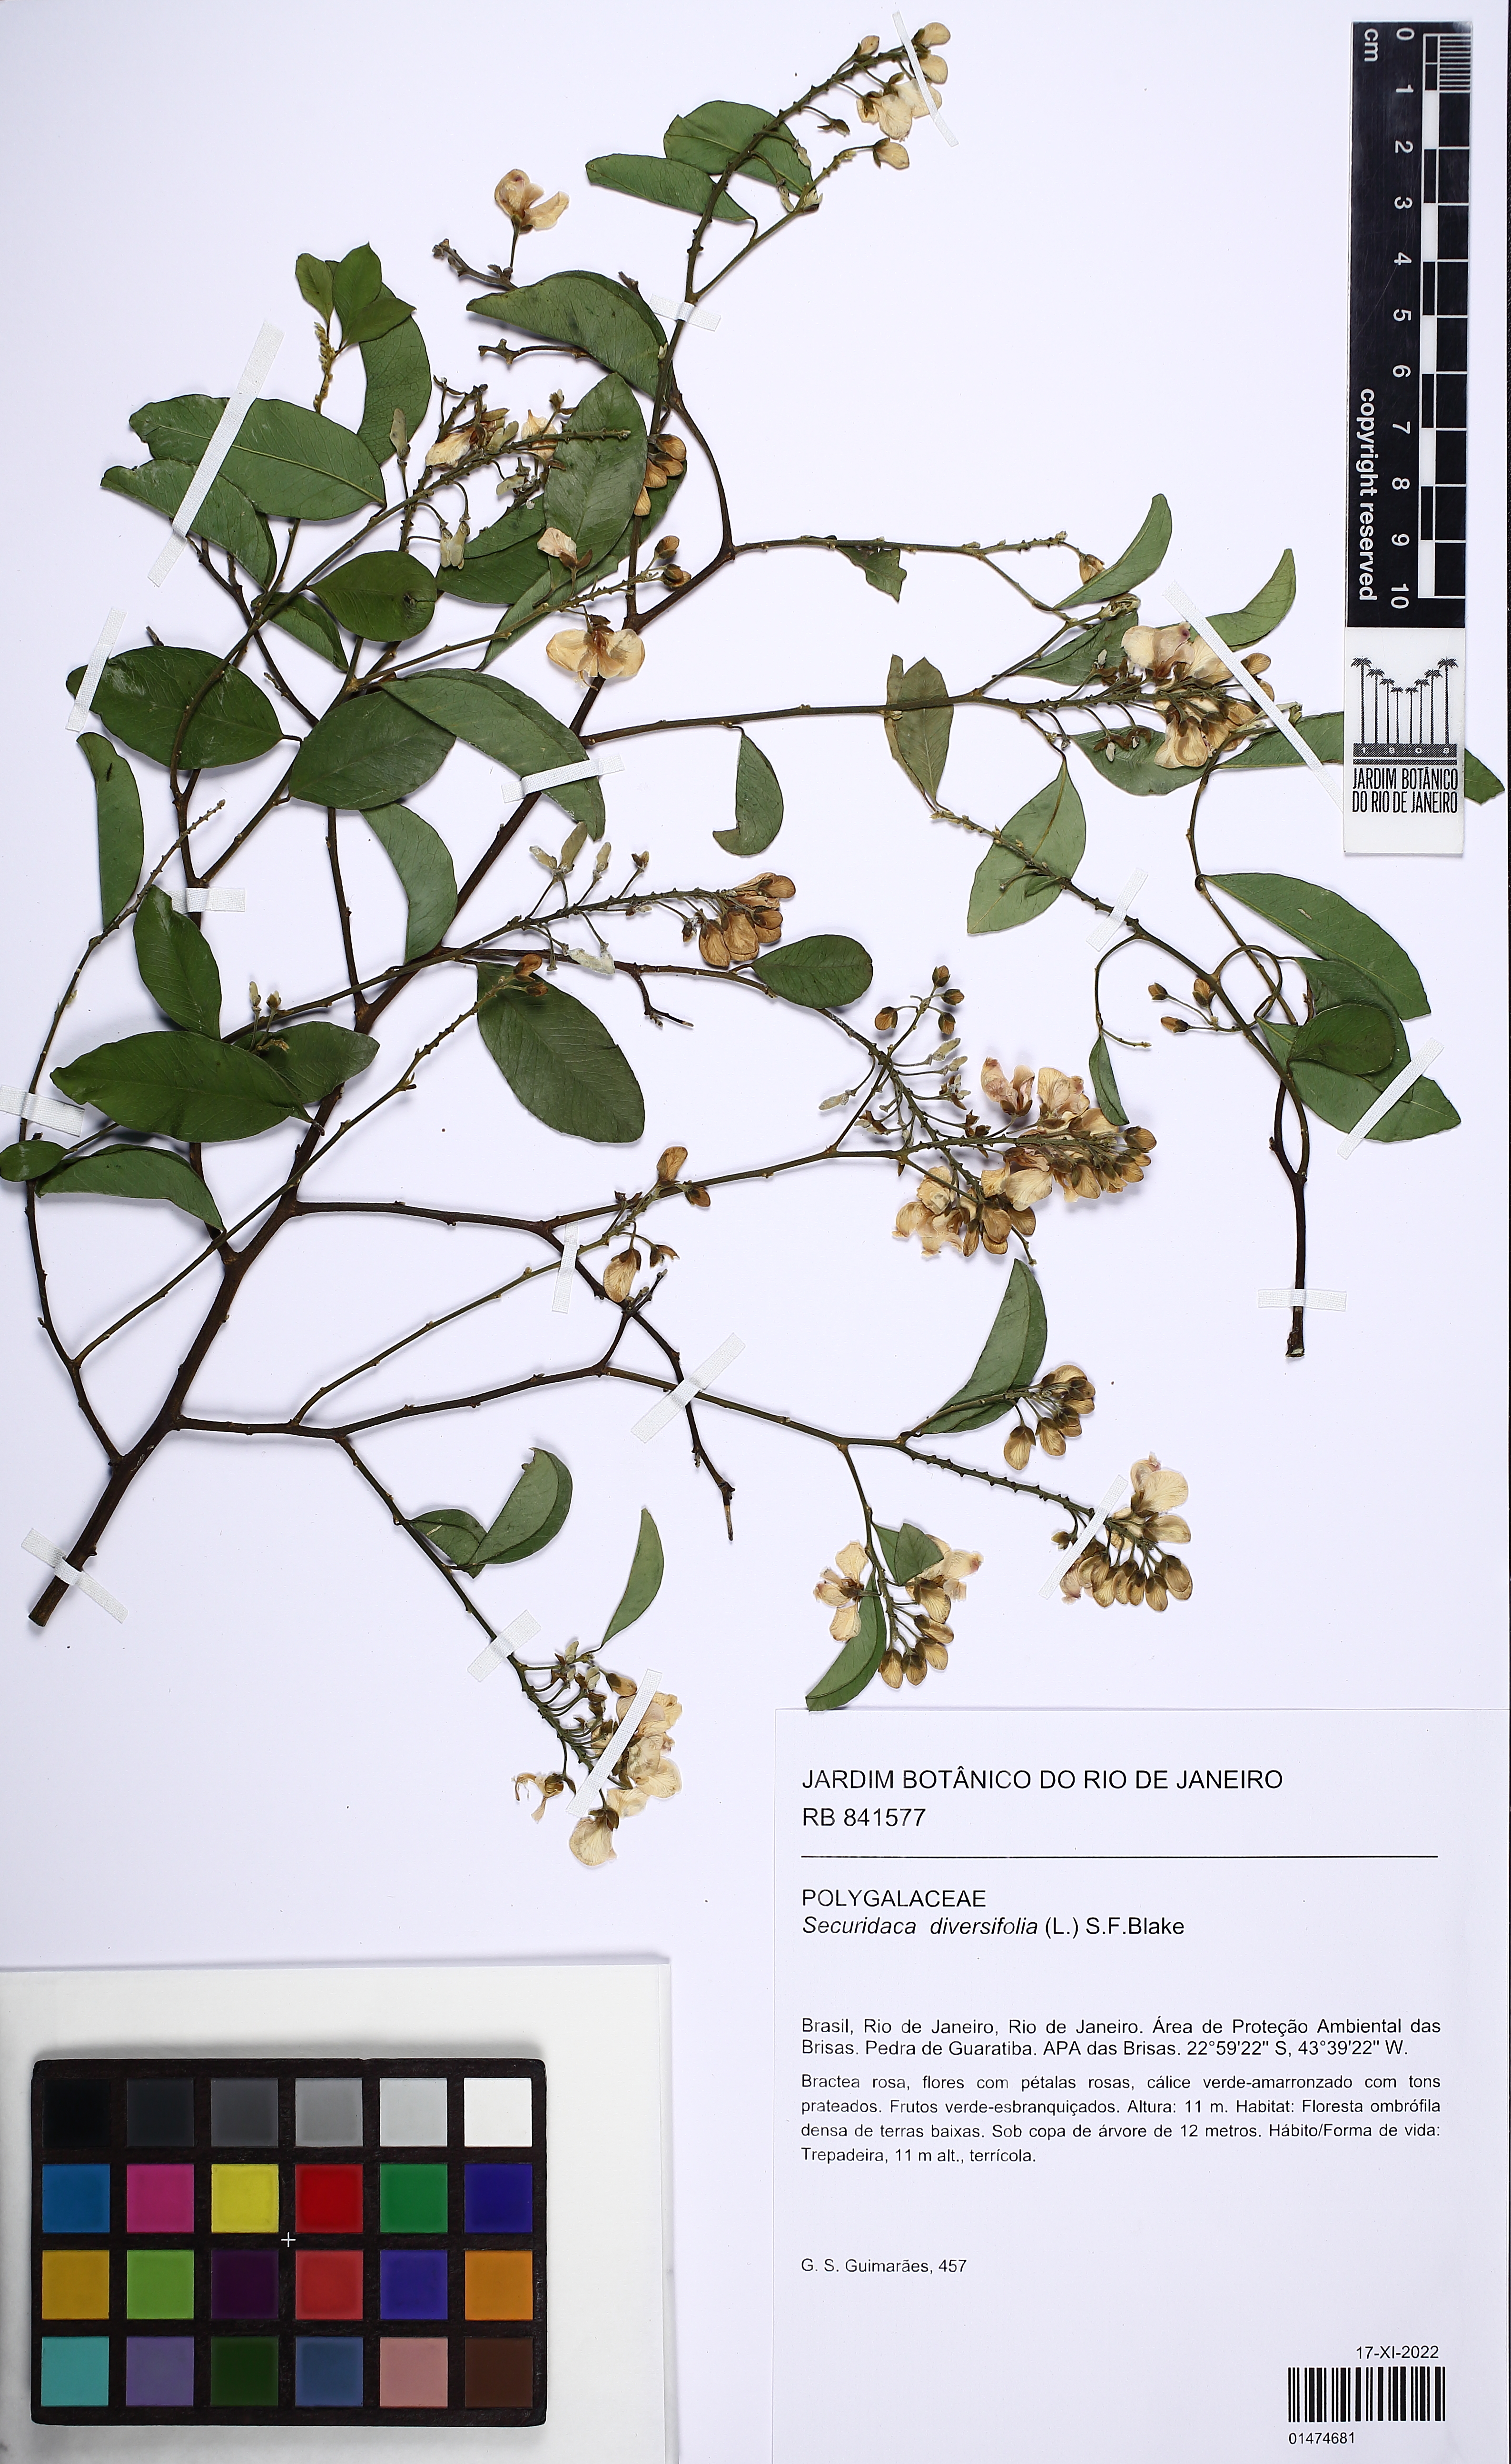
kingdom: Plantae
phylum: Tracheophyta
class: Magnoliopsida
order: Fabales
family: Polygalaceae
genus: Securidaca
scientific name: Securidaca diversifolia
